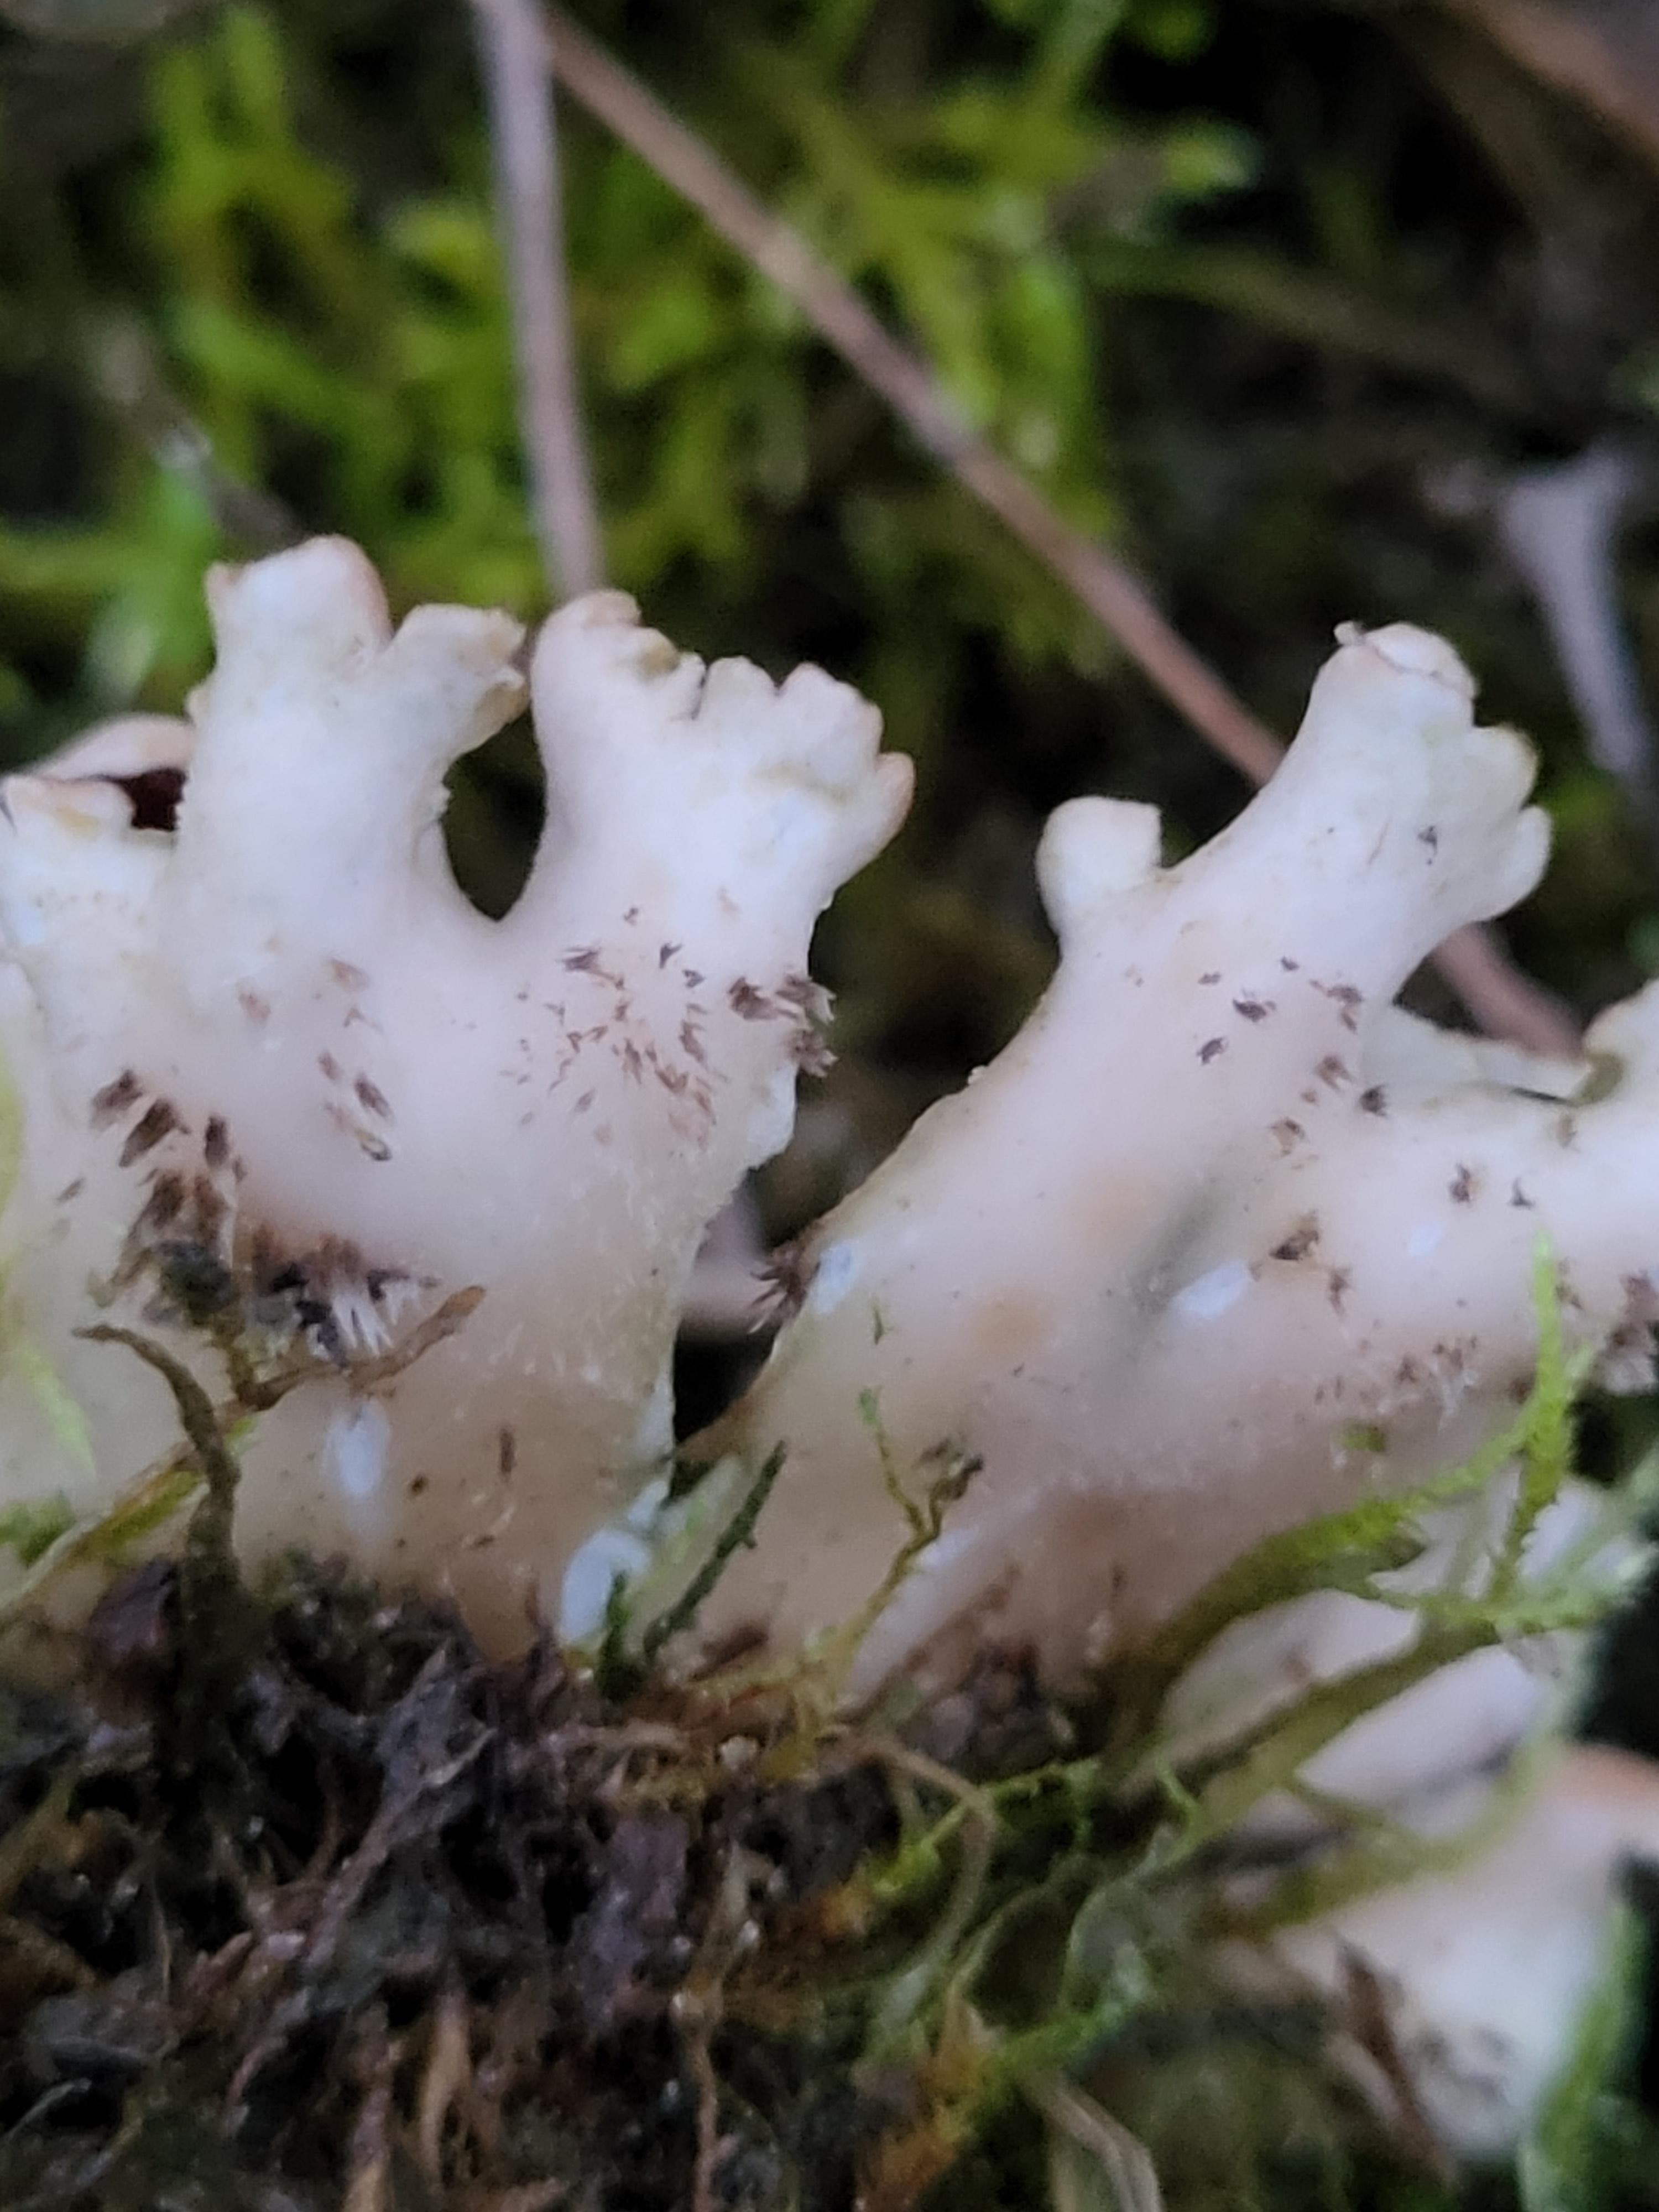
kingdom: Fungi
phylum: Ascomycota
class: Lecanoromycetes
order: Peltigerales
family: Peltigeraceae
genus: Peltigera
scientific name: Peltigera
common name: skjoldlav
